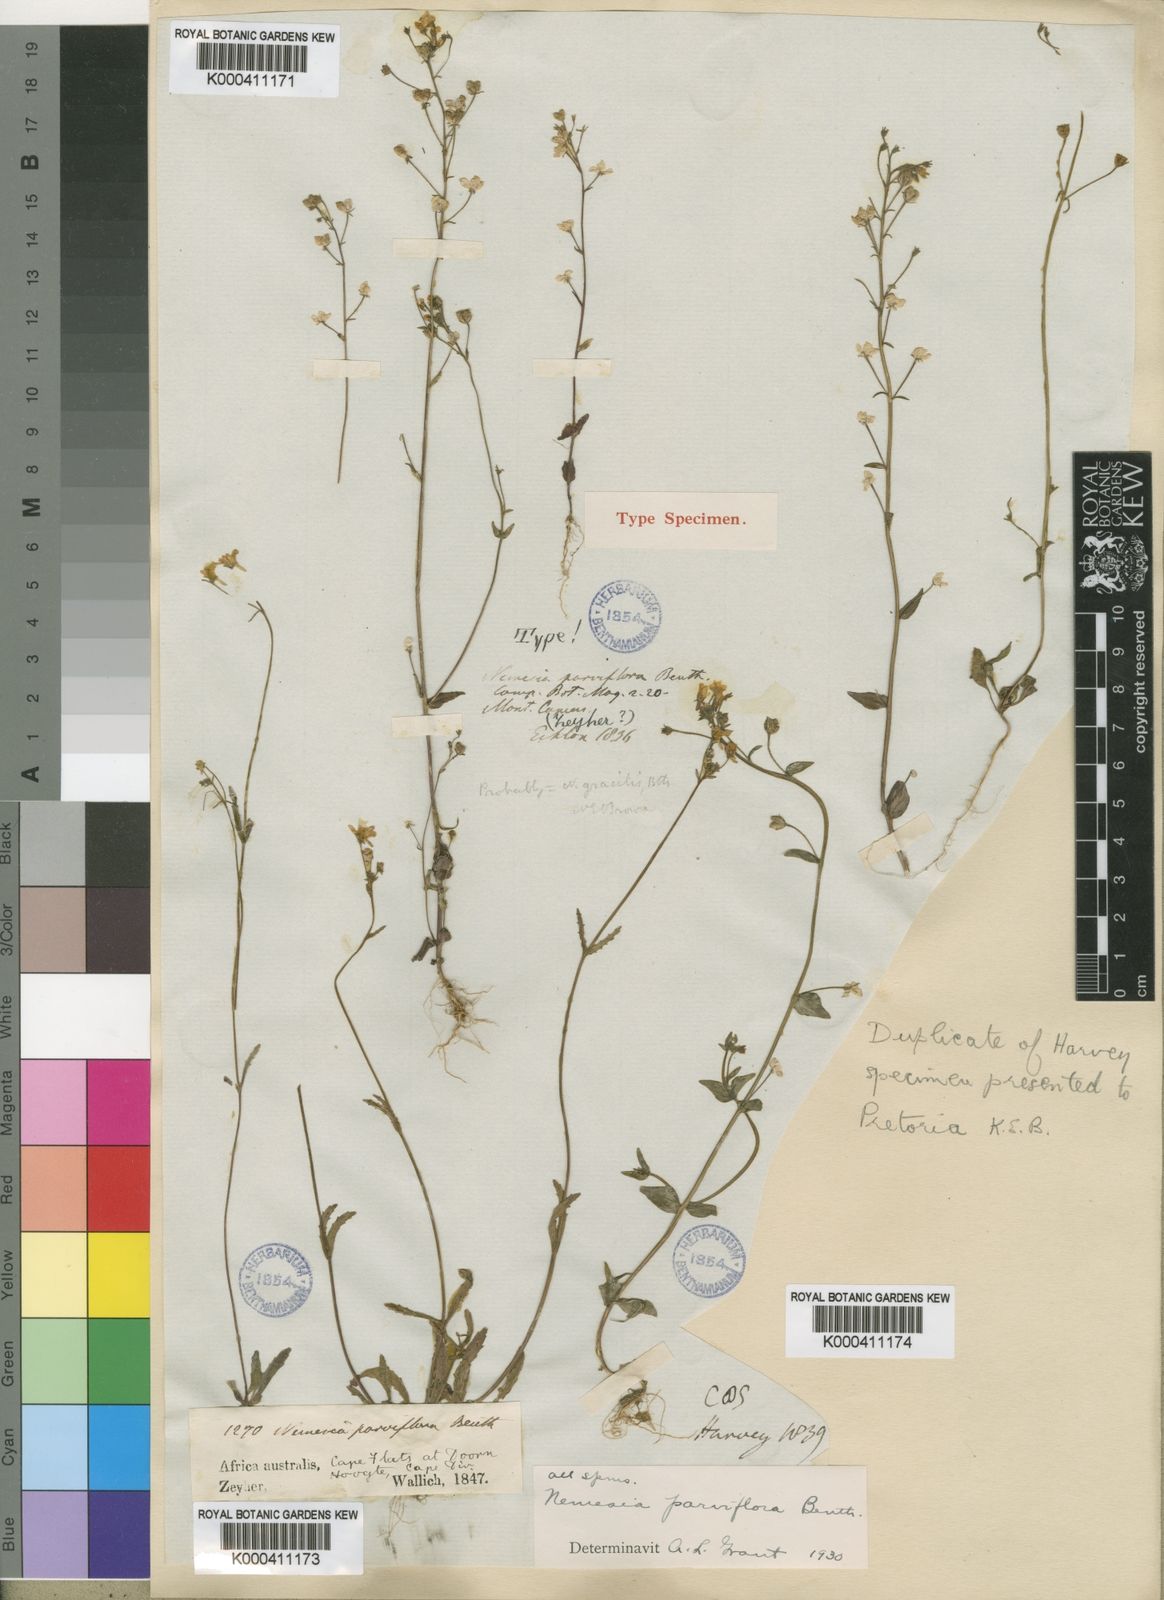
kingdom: Plantae
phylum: Tracheophyta
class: Magnoliopsida
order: Lamiales
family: Scrophulariaceae
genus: Nemesia
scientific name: Nemesia parviflora
